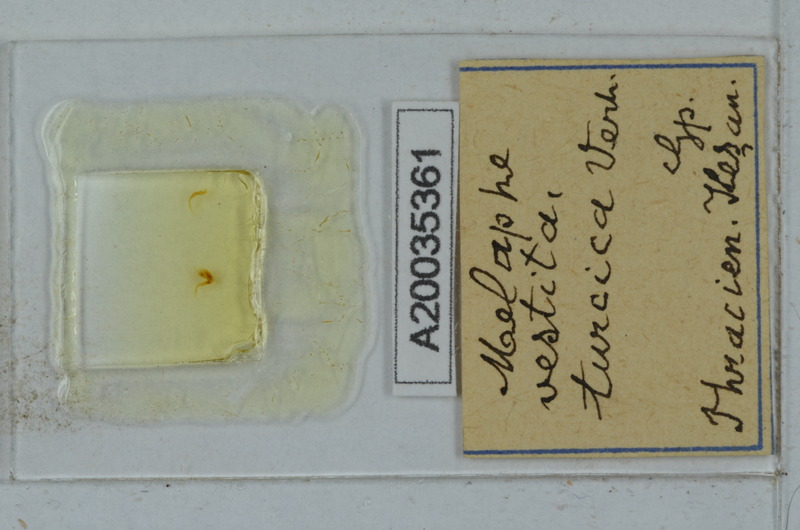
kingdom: Animalia
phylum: Arthropoda
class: Diplopoda
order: Polydesmida
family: Xystodesmidae
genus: Melaphe
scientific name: Melaphe vestita
